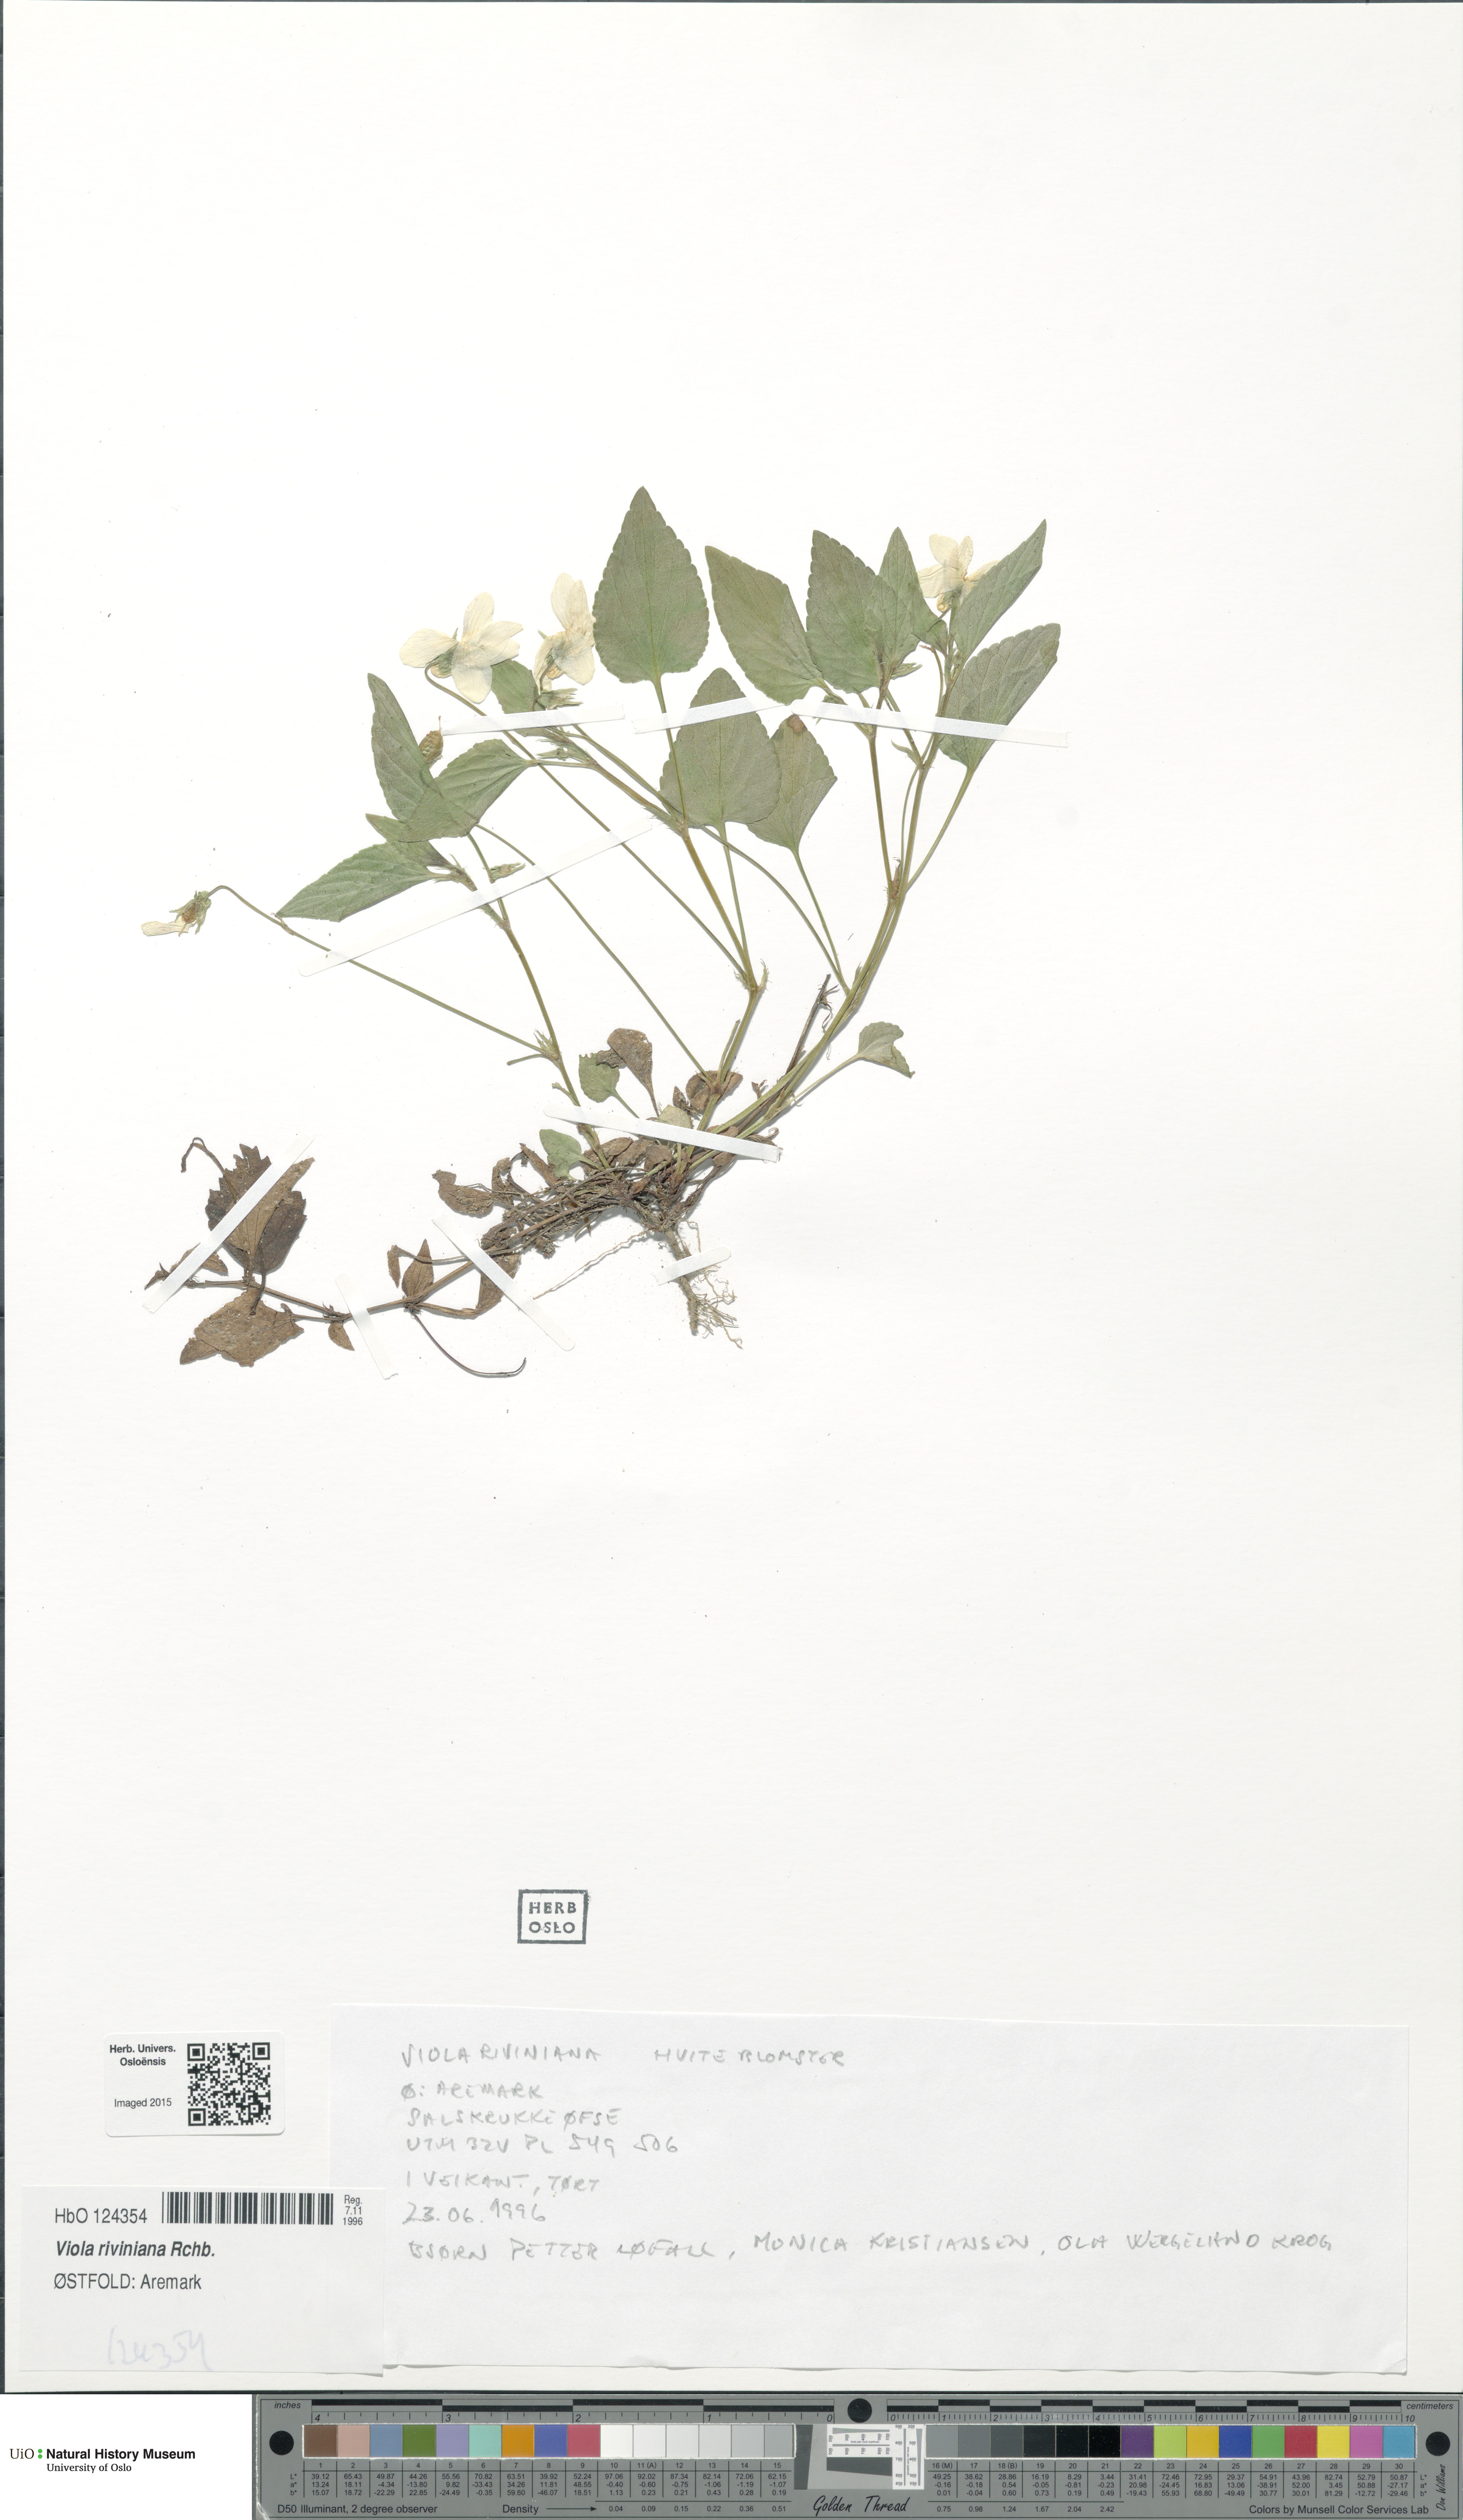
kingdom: Plantae
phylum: Tracheophyta
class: Magnoliopsida
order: Malpighiales
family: Violaceae
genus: Viola
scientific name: Viola riviniana
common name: Common dog-violet
